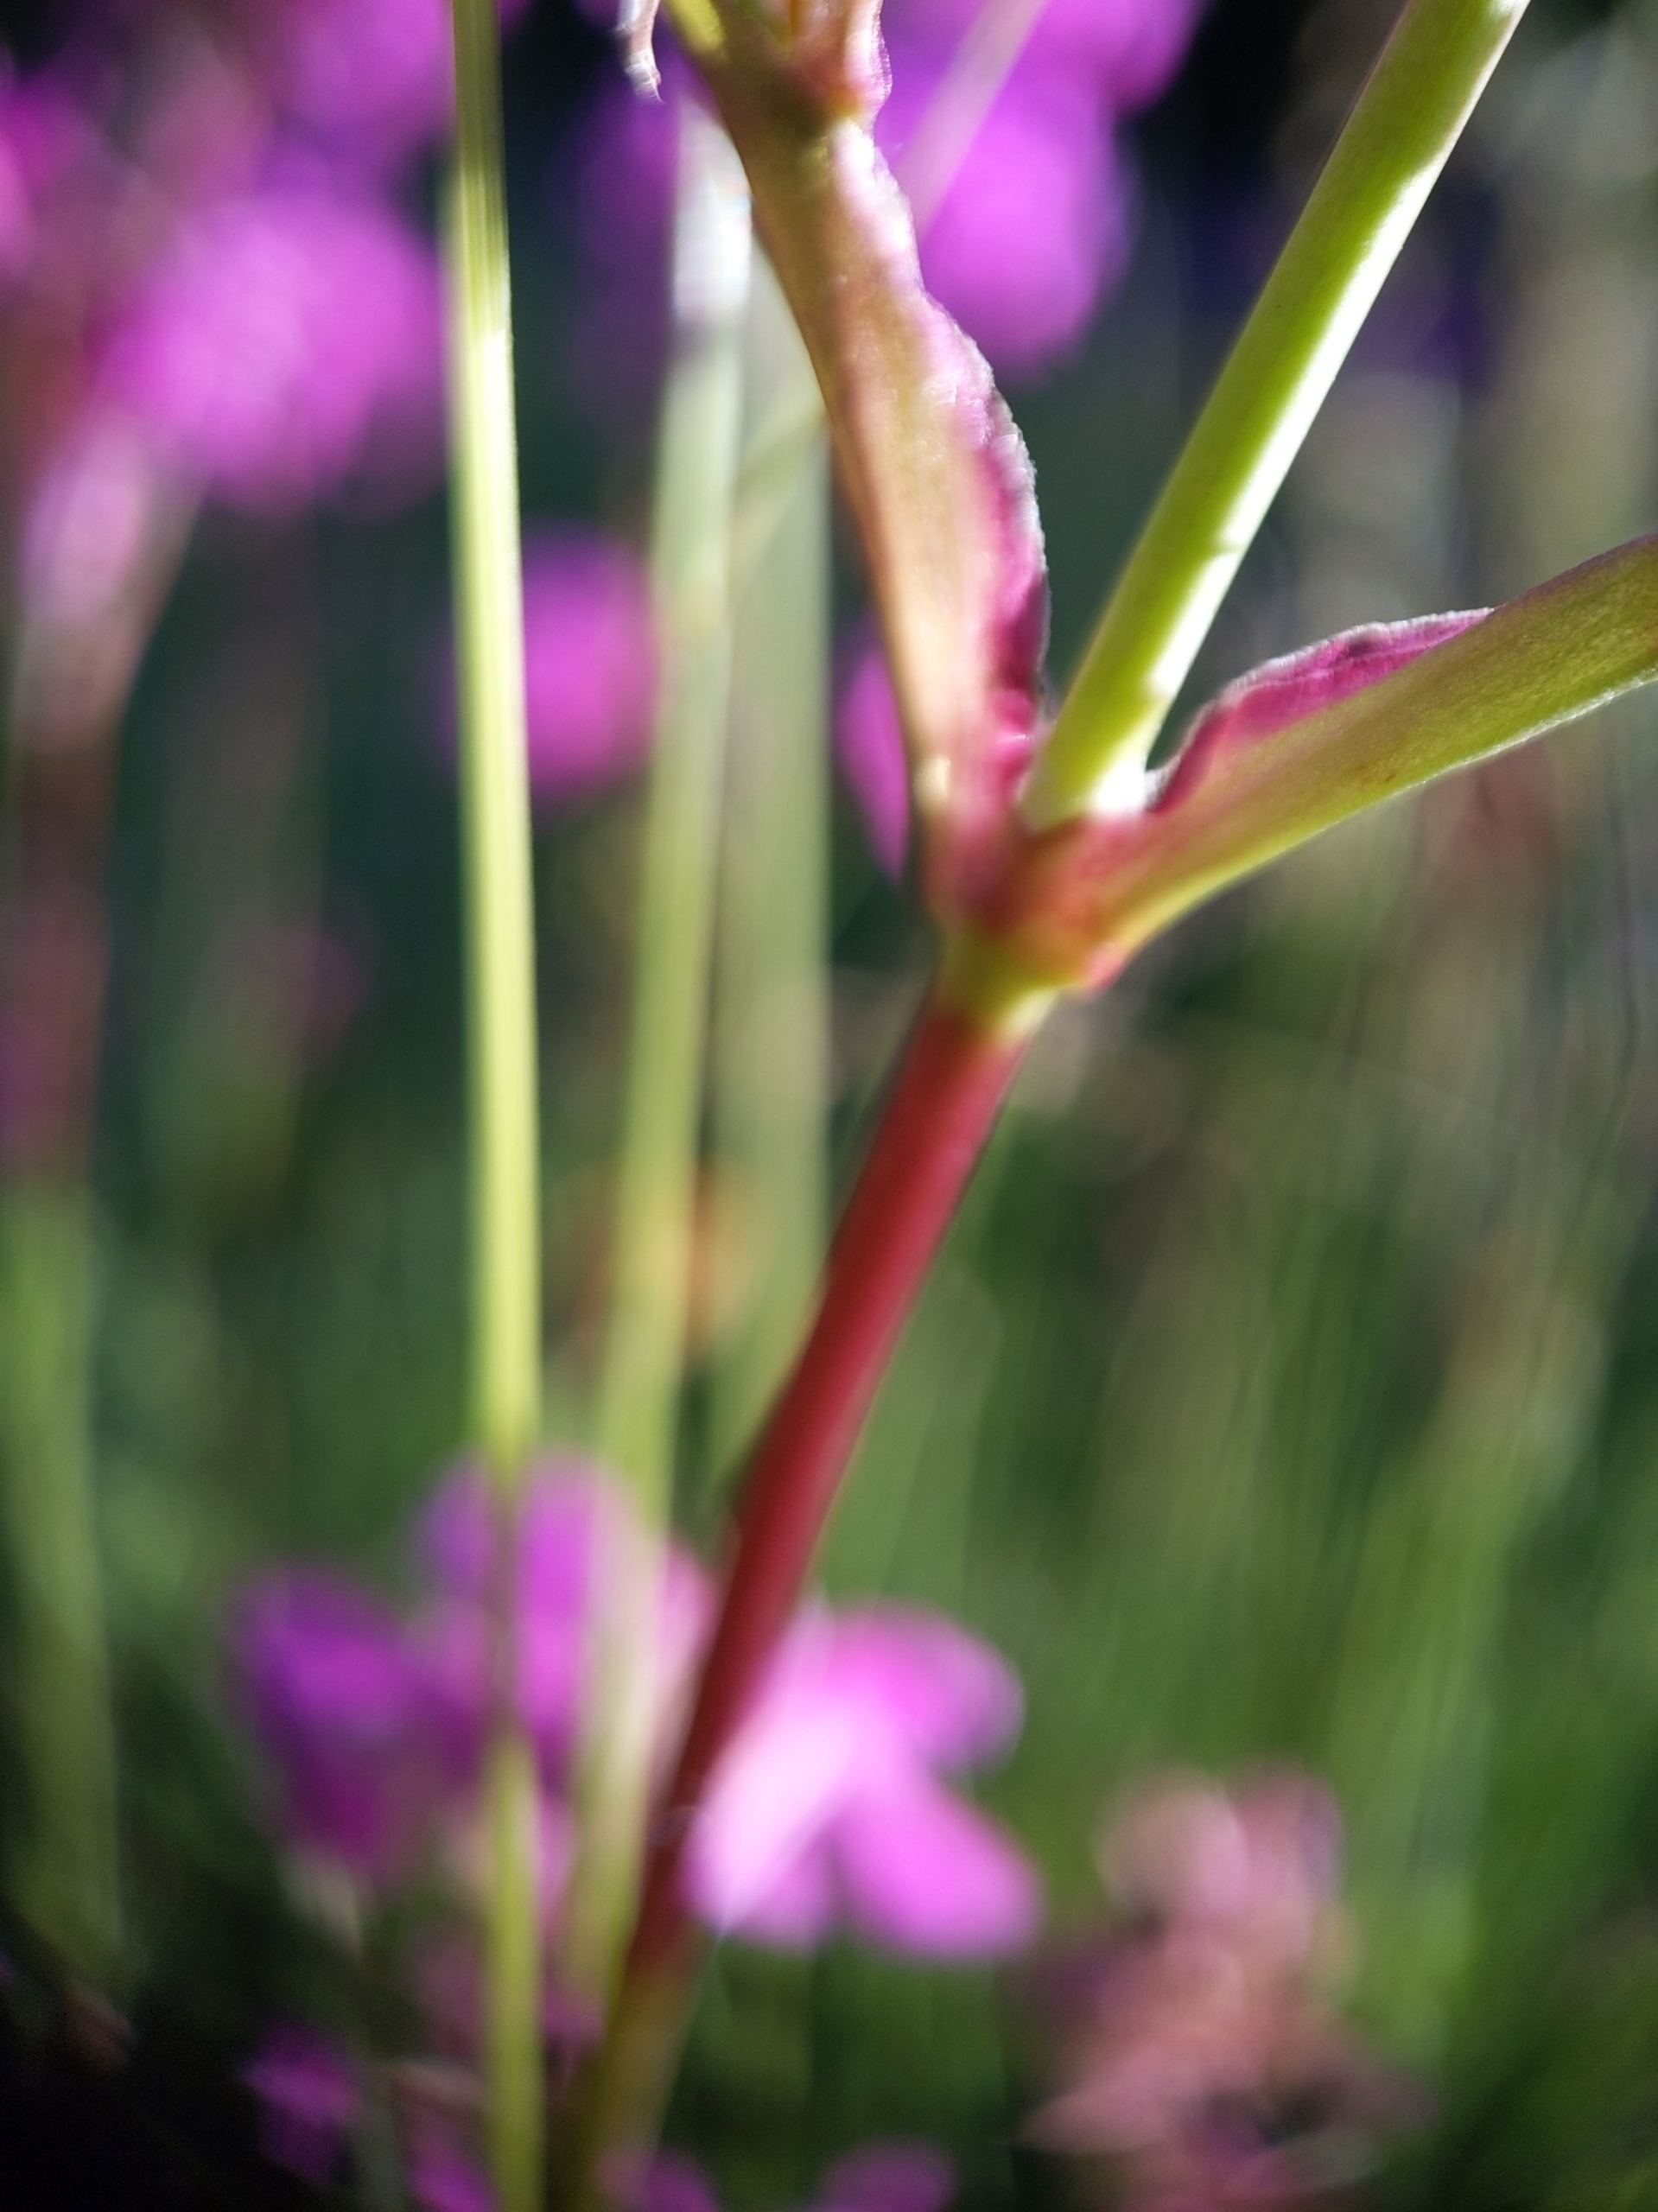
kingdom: Plantae
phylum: Tracheophyta
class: Magnoliopsida
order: Caryophyllales
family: Caryophyllaceae
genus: Viscaria
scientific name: Viscaria vulgaris
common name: Tjærenellike
